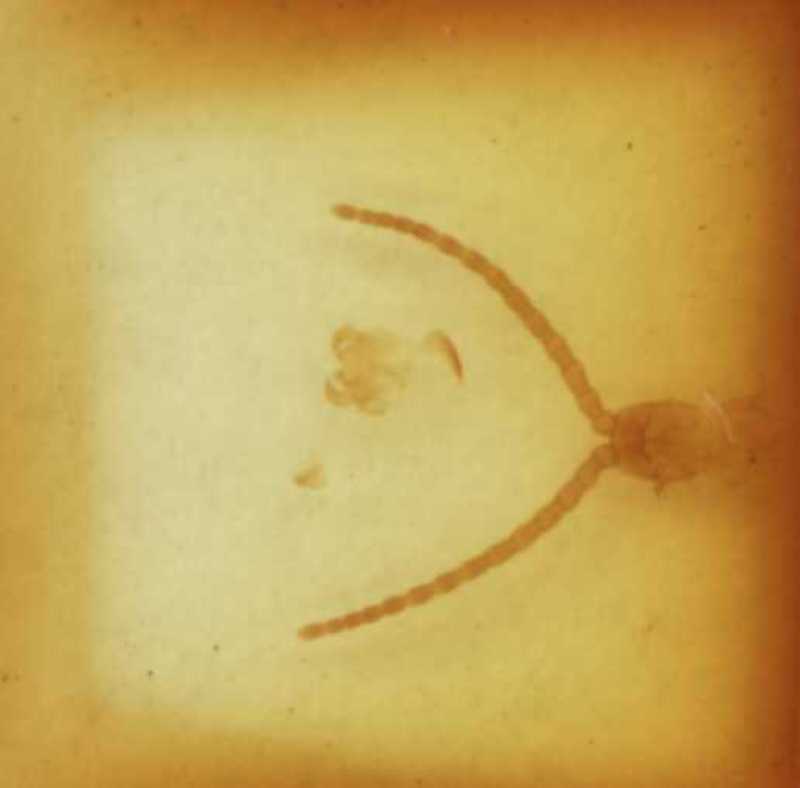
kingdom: Animalia
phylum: Arthropoda
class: Chilopoda
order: Geophilomorpha
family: Geophilidae
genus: Taschkentia
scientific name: Taschkentia parthorum
